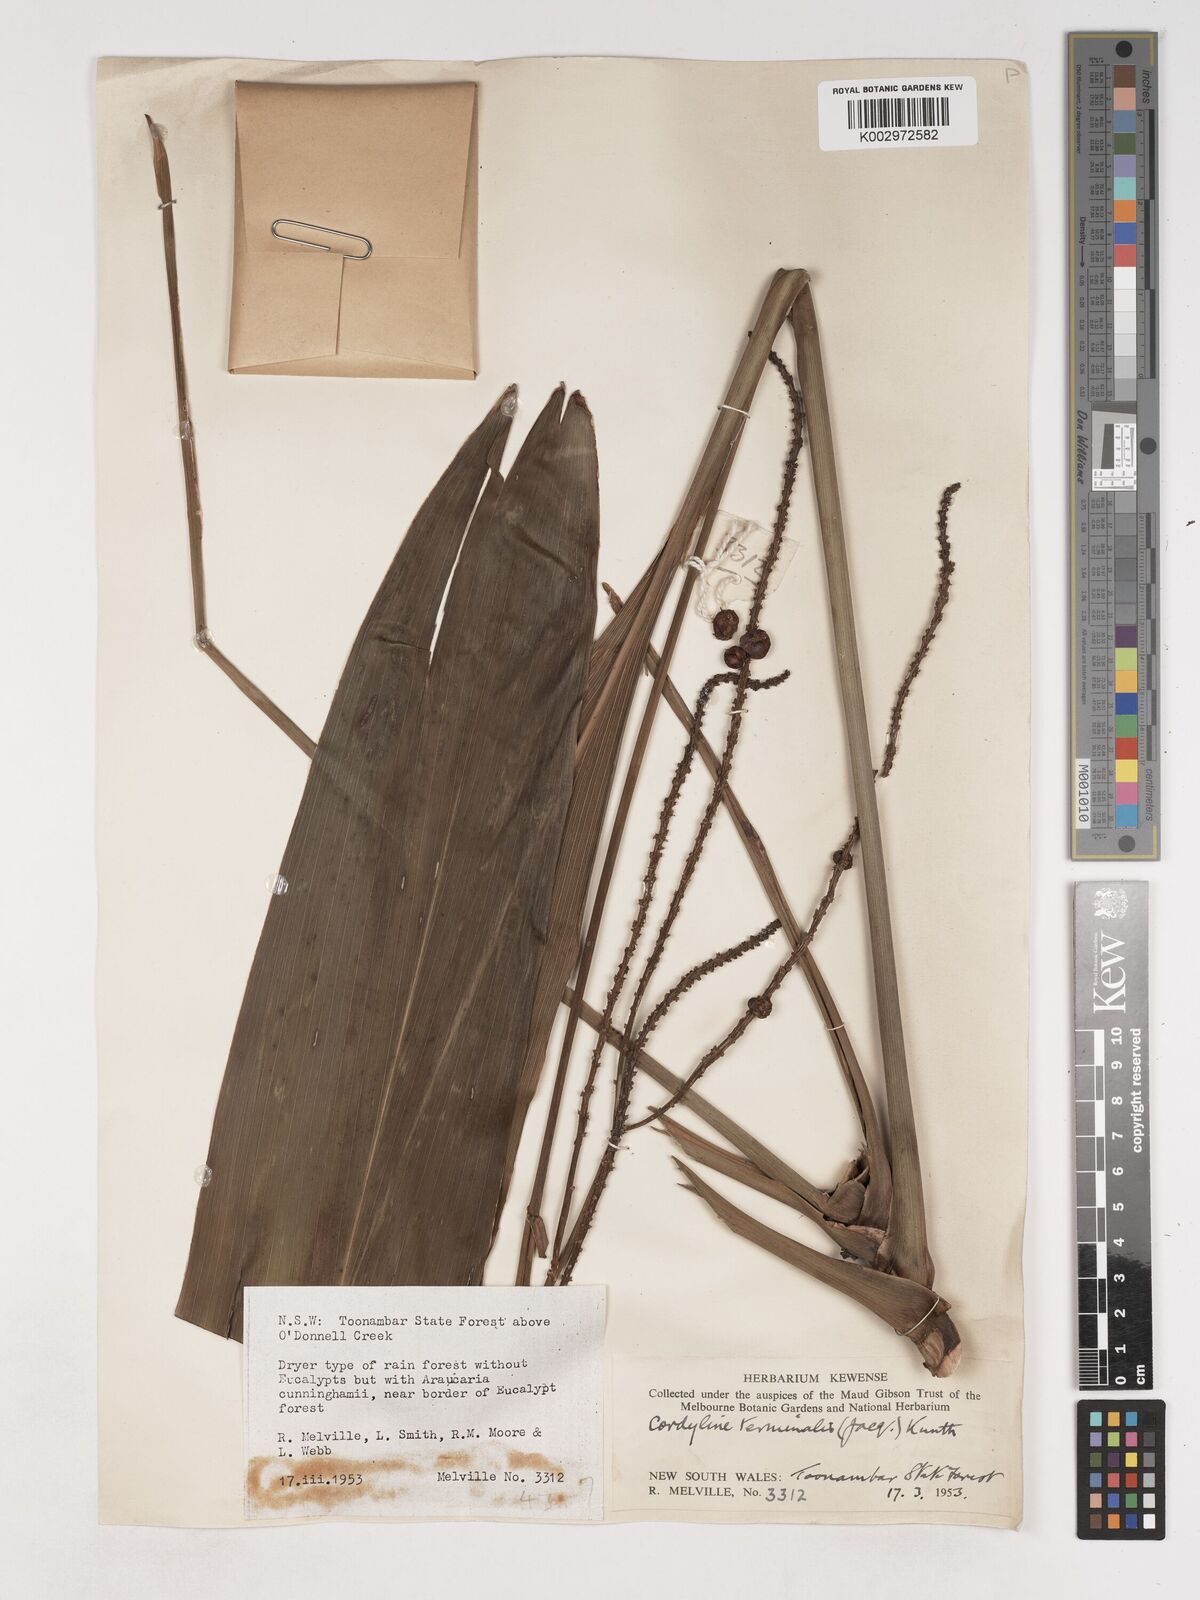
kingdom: Plantae
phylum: Tracheophyta
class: Liliopsida
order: Asparagales
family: Asparagaceae
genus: Cordyline
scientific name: Cordyline fruticosa
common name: Good-luck-plant
